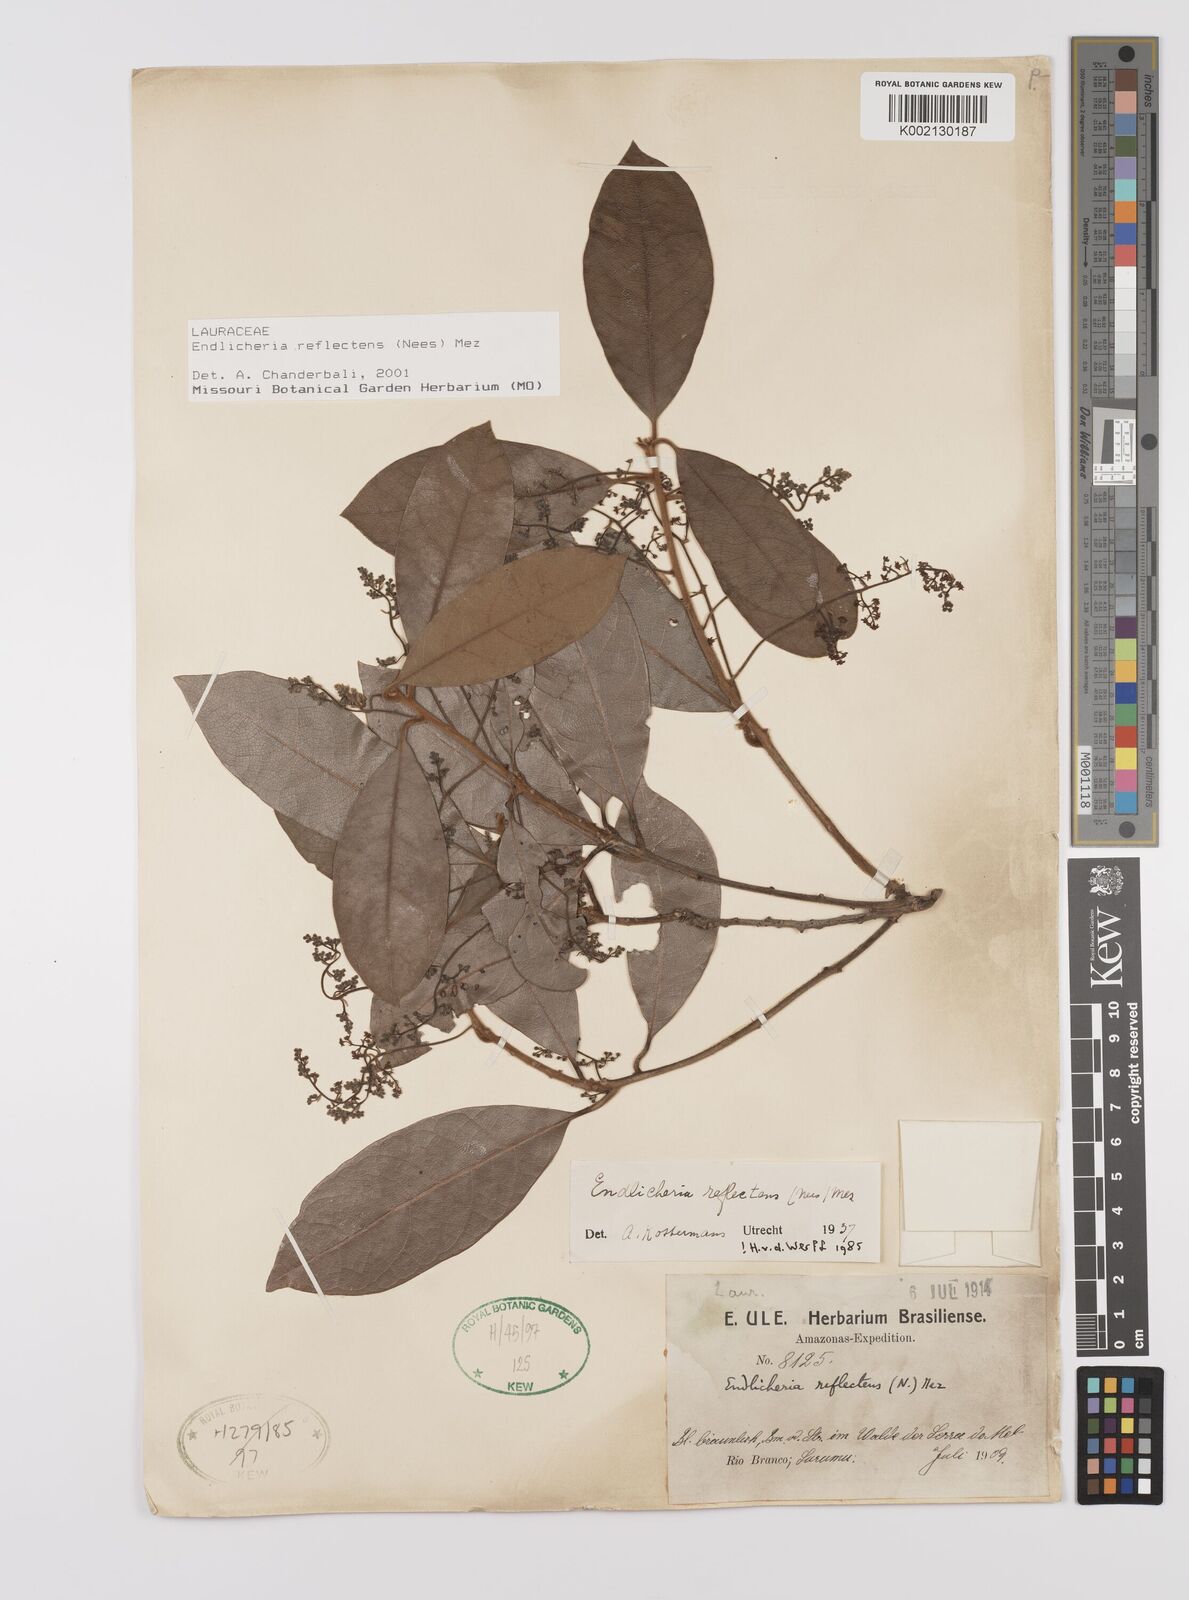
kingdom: Plantae
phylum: Tracheophyta
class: Magnoliopsida
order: Laurales
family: Lauraceae
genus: Endlicheria
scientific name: Endlicheria reflectens
